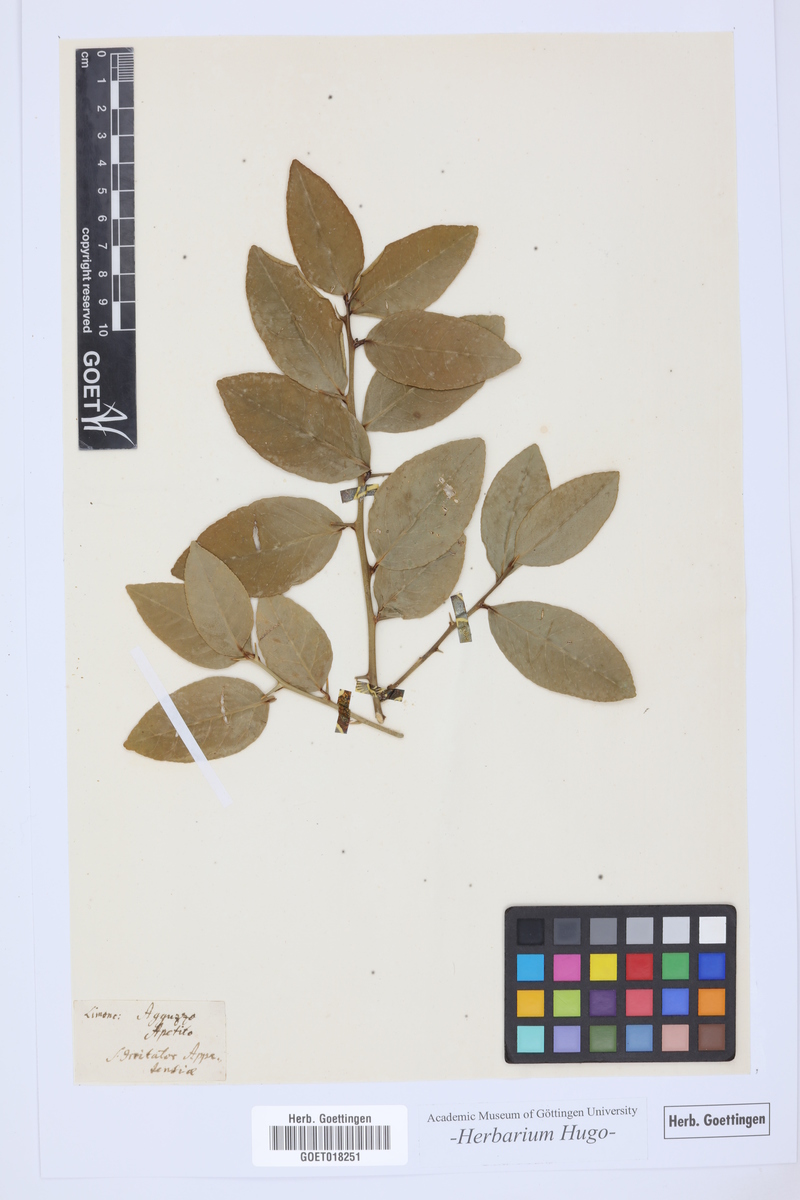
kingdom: Plantae
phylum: Tracheophyta
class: Magnoliopsida
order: Sapindales
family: Rutaceae
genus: Citrus
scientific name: Citrus
